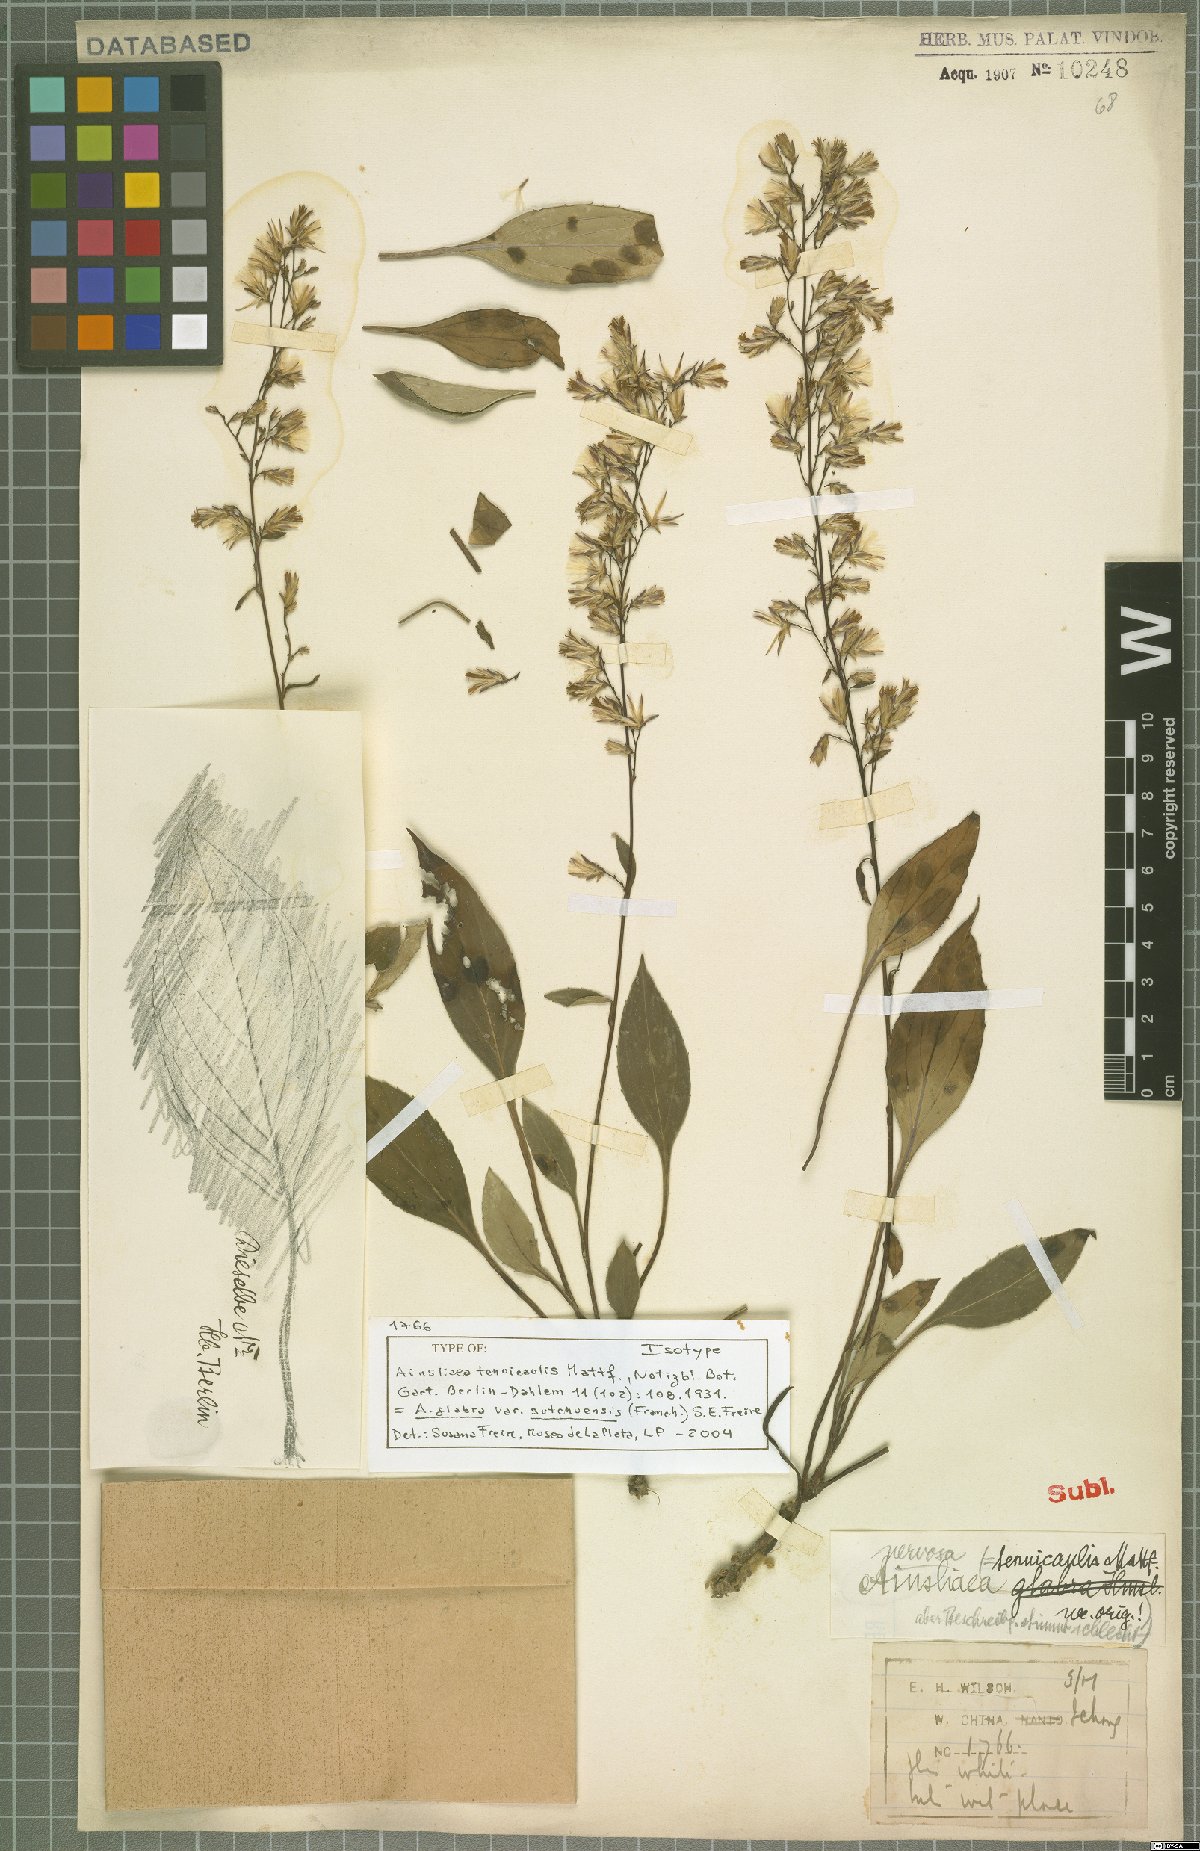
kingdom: Plantae
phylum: Tracheophyta
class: Magnoliopsida
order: Asterales
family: Asteraceae
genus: Ainsliaea
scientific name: Ainsliaea glabra
